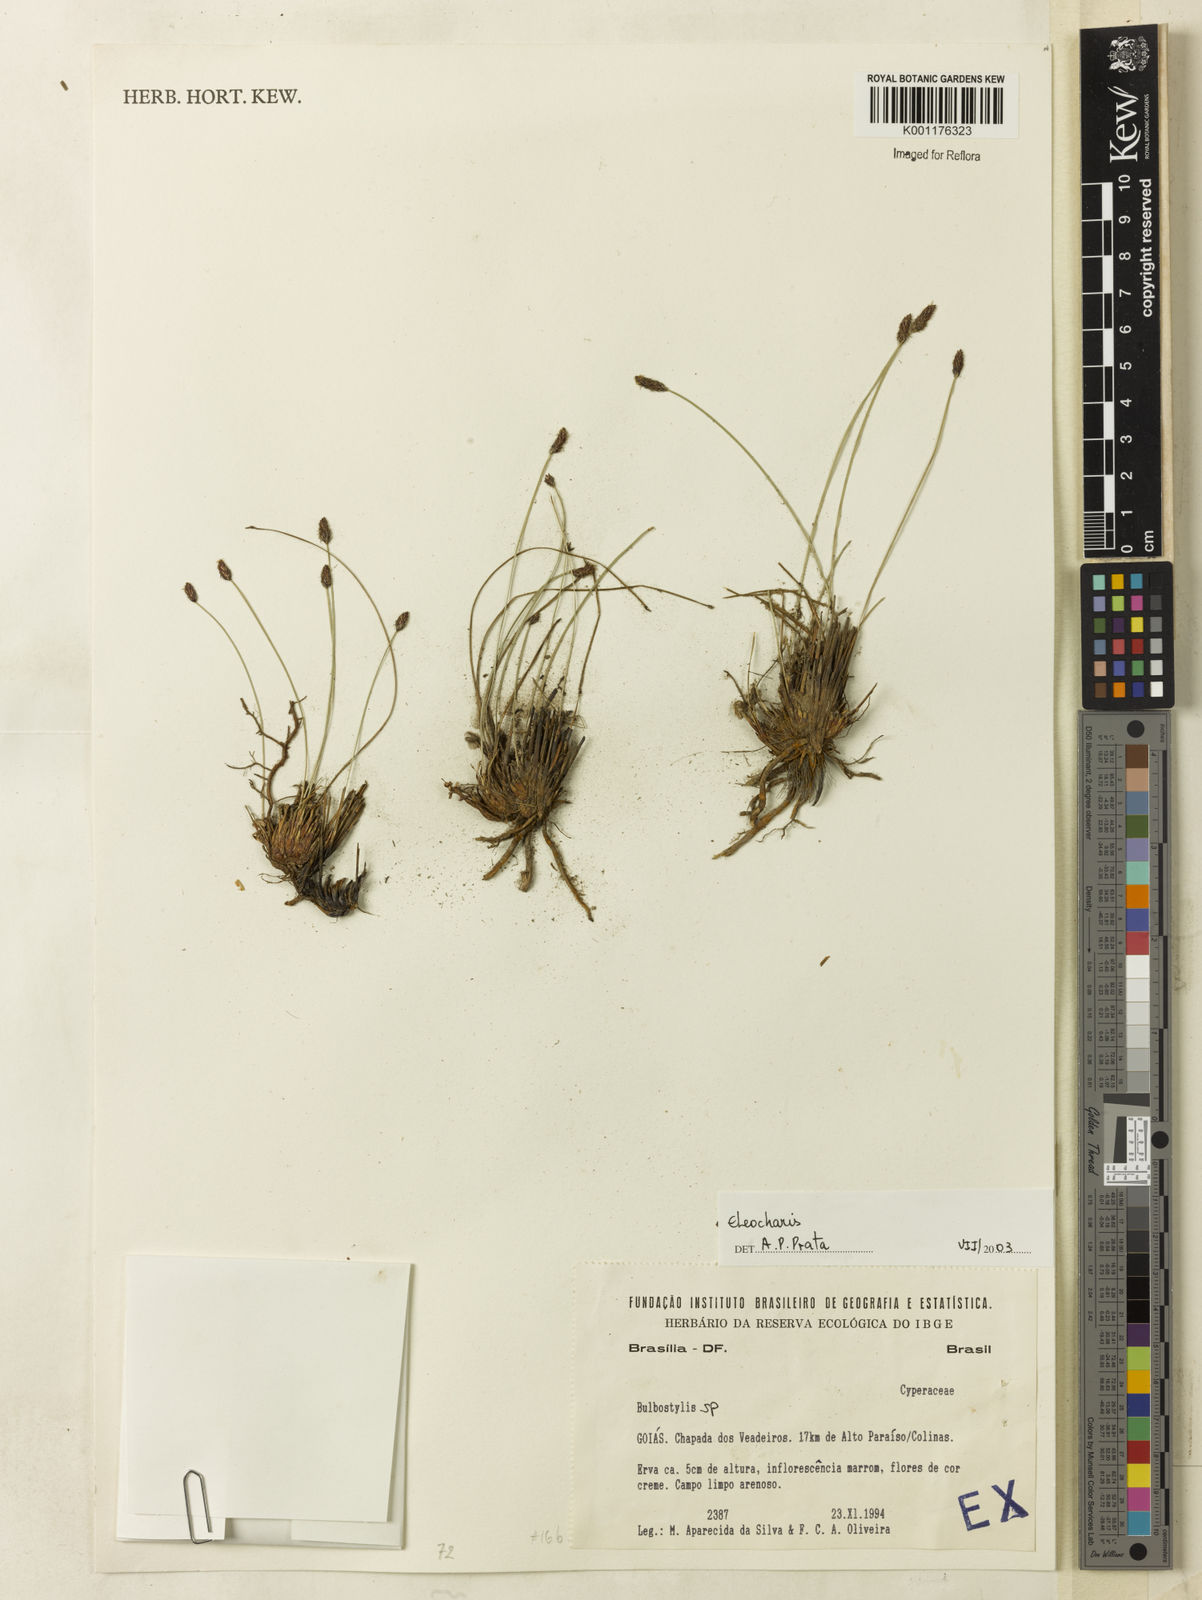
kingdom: Plantae
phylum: Tracheophyta
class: Liliopsida
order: Poales
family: Cyperaceae
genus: Eleocharis
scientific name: Eleocharis
